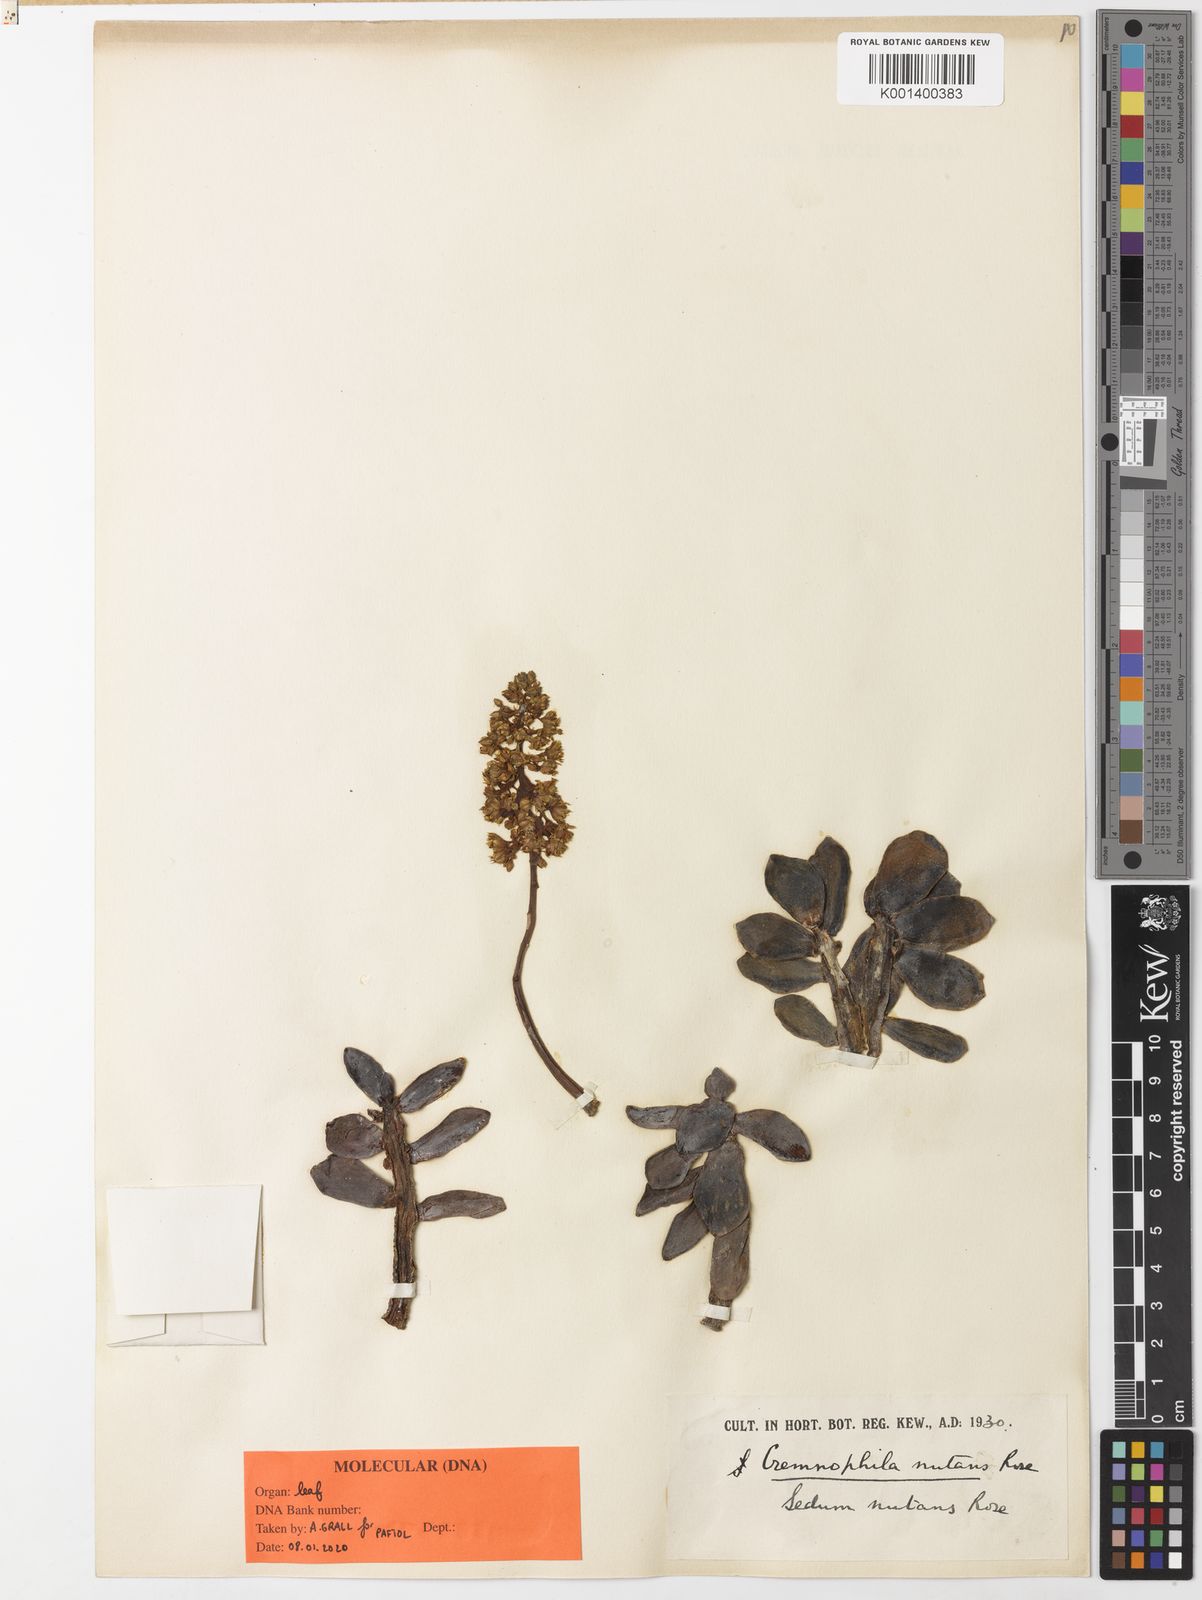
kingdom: Plantae
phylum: Tracheophyta
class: Magnoliopsida
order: Saxifragales
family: Crassulaceae
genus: Cremnophila
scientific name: Cremnophila nutans
